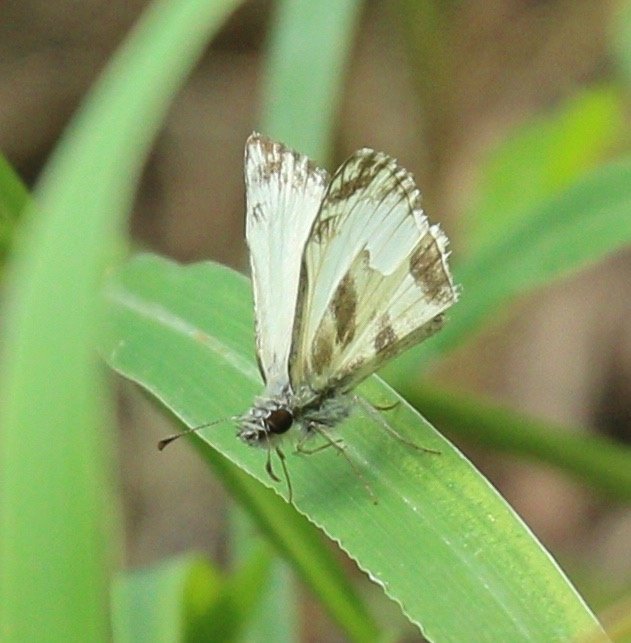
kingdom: Animalia
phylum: Arthropoda
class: Insecta
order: Lepidoptera
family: Hesperiidae
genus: Heliopetes
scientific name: Heliopetes macaira
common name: Turk's-cap White-Skipper
